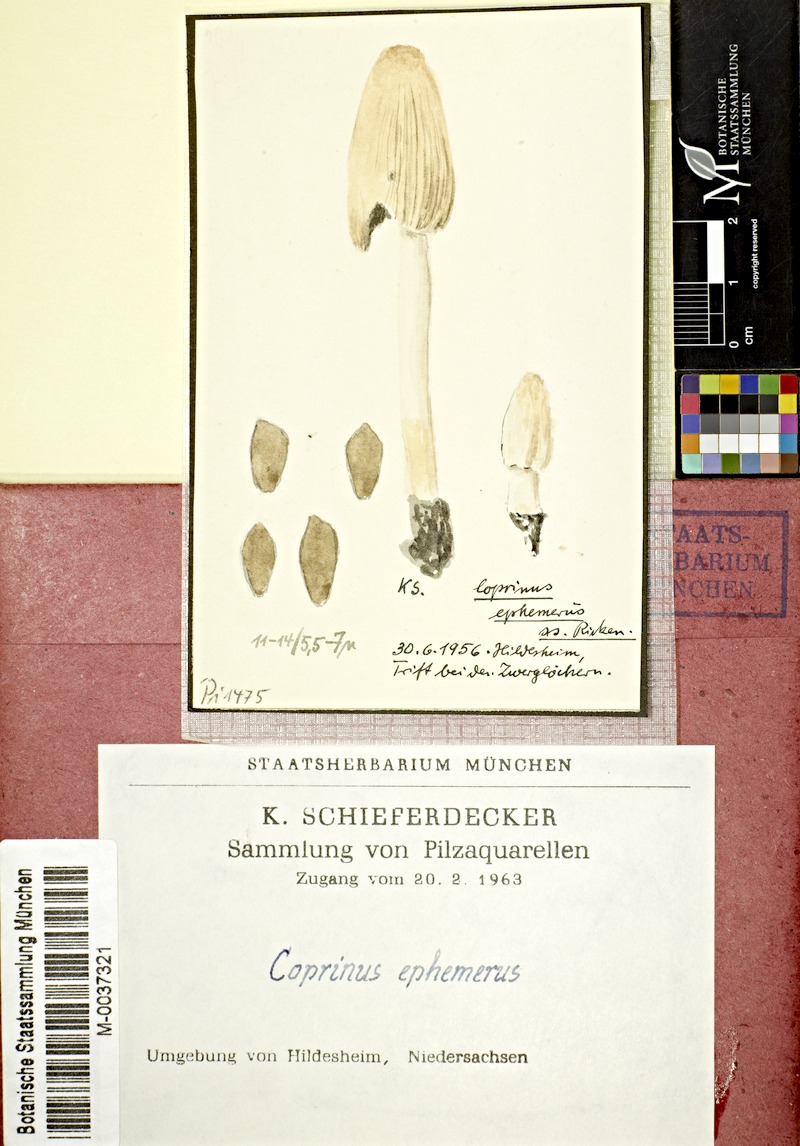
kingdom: Fungi
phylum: Basidiomycota
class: Agaricomycetes
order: Agaricales
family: Psathyrellaceae
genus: Tulosesus
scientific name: Tulosesus ephemerus
